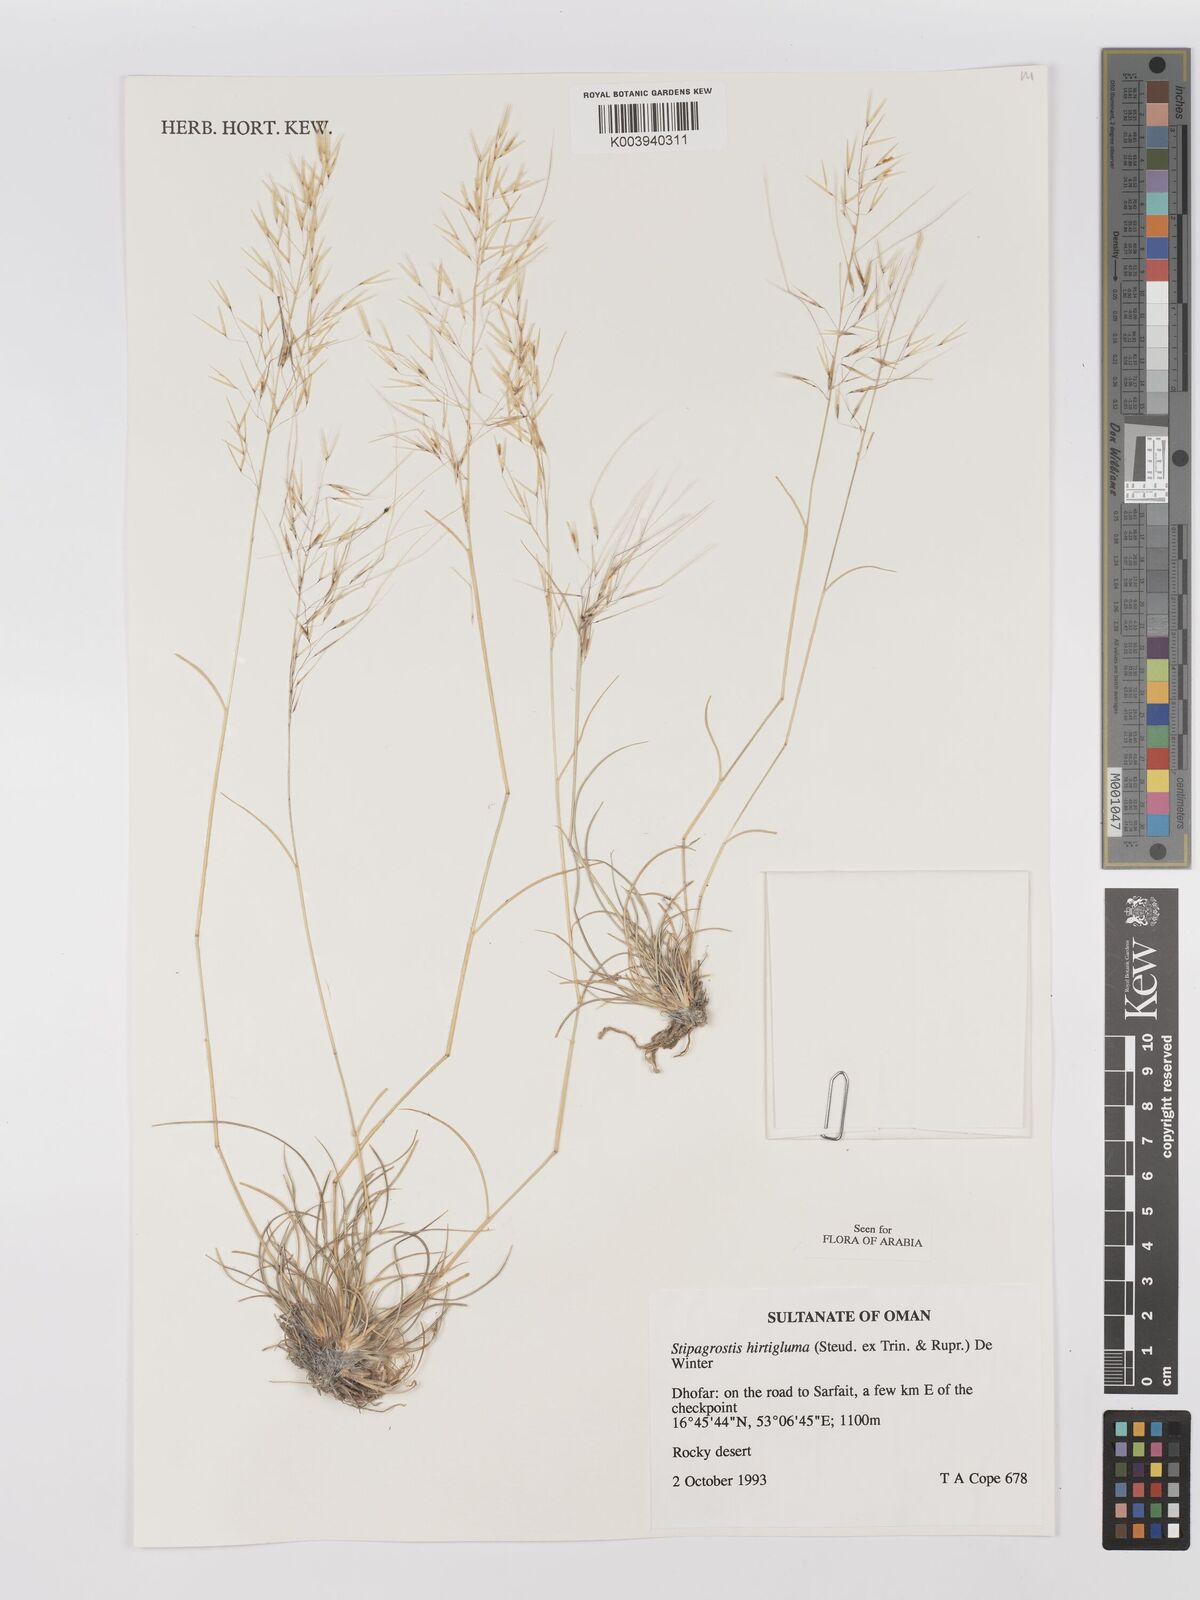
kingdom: Plantae
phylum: Tracheophyta
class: Liliopsida
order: Poales
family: Poaceae
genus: Stipagrostis
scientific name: Stipagrostis hirtigluma
